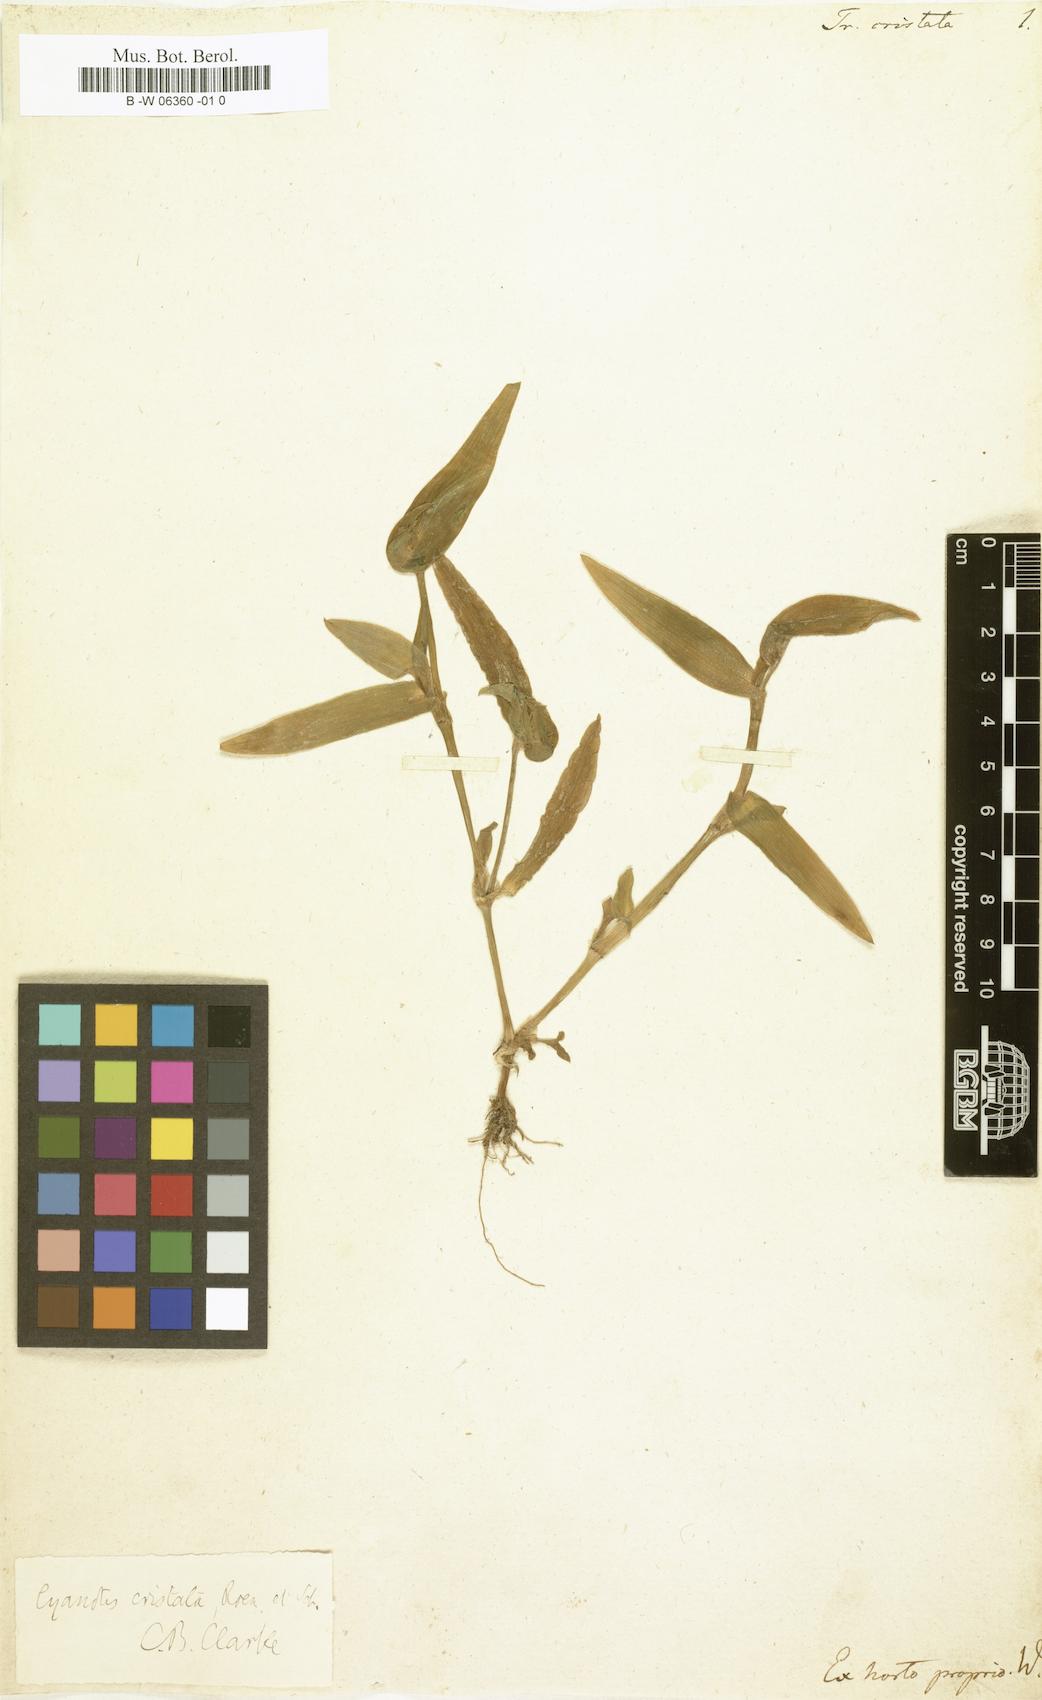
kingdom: Plantae
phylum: Tracheophyta
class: Liliopsida
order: Commelinales
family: Commelinaceae
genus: Tradescantia
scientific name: Tradescantia cristata
